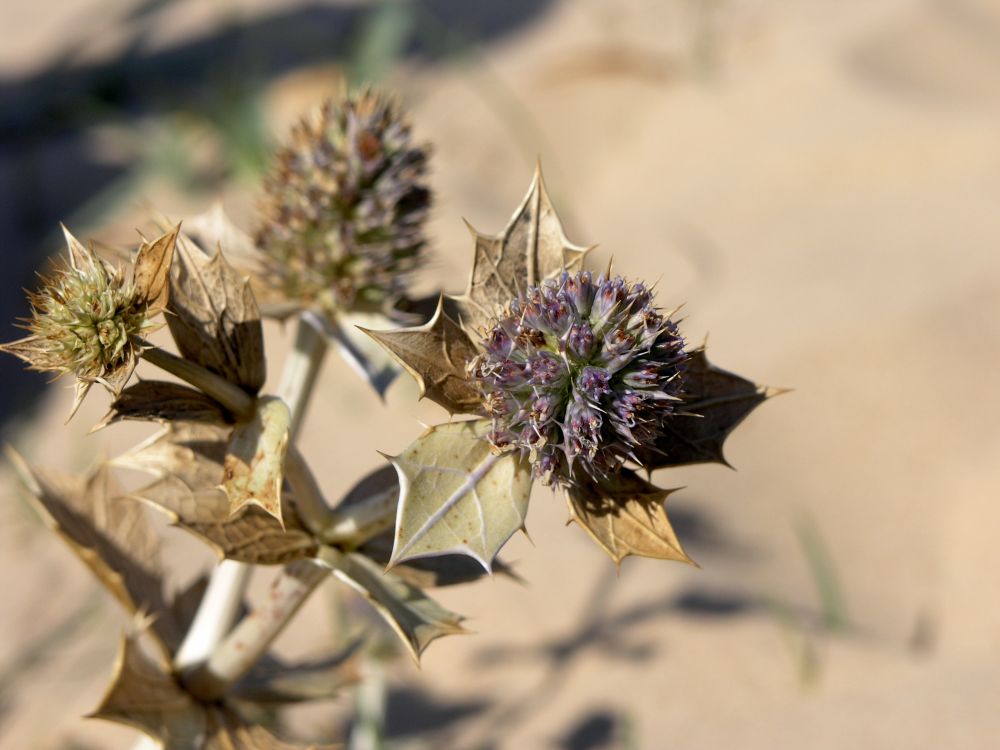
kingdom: Plantae
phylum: Tracheophyta
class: Magnoliopsida
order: Apiales
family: Apiaceae
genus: Eryngium
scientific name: Eryngium maritimum
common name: Sea-holly
